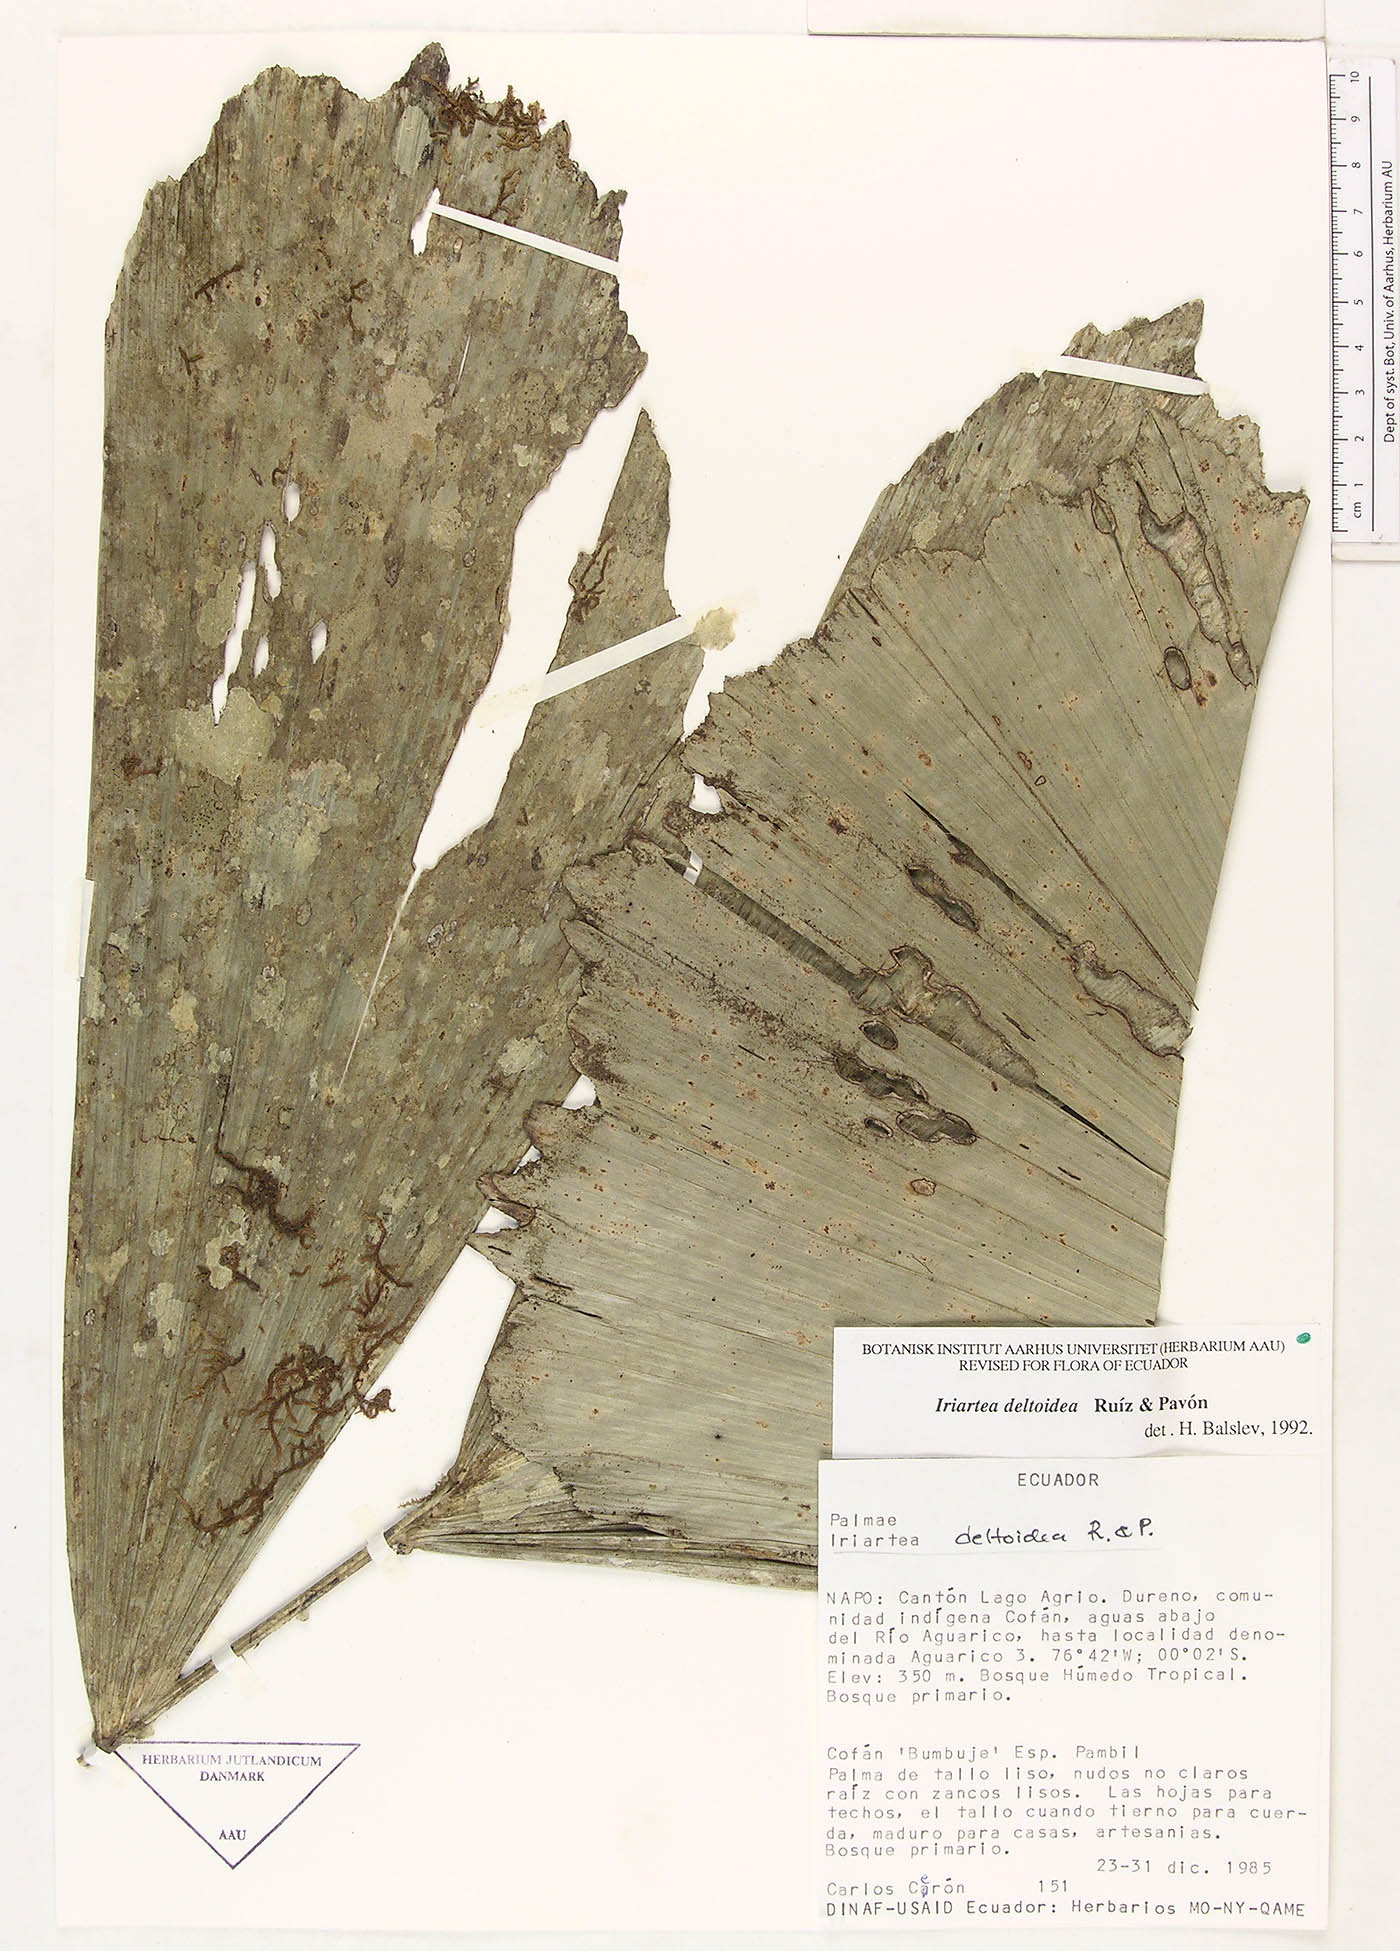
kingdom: Plantae
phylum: Tracheophyta
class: Liliopsida
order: Arecales
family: Arecaceae
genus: Iriartea
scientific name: Iriartea deltoidea
